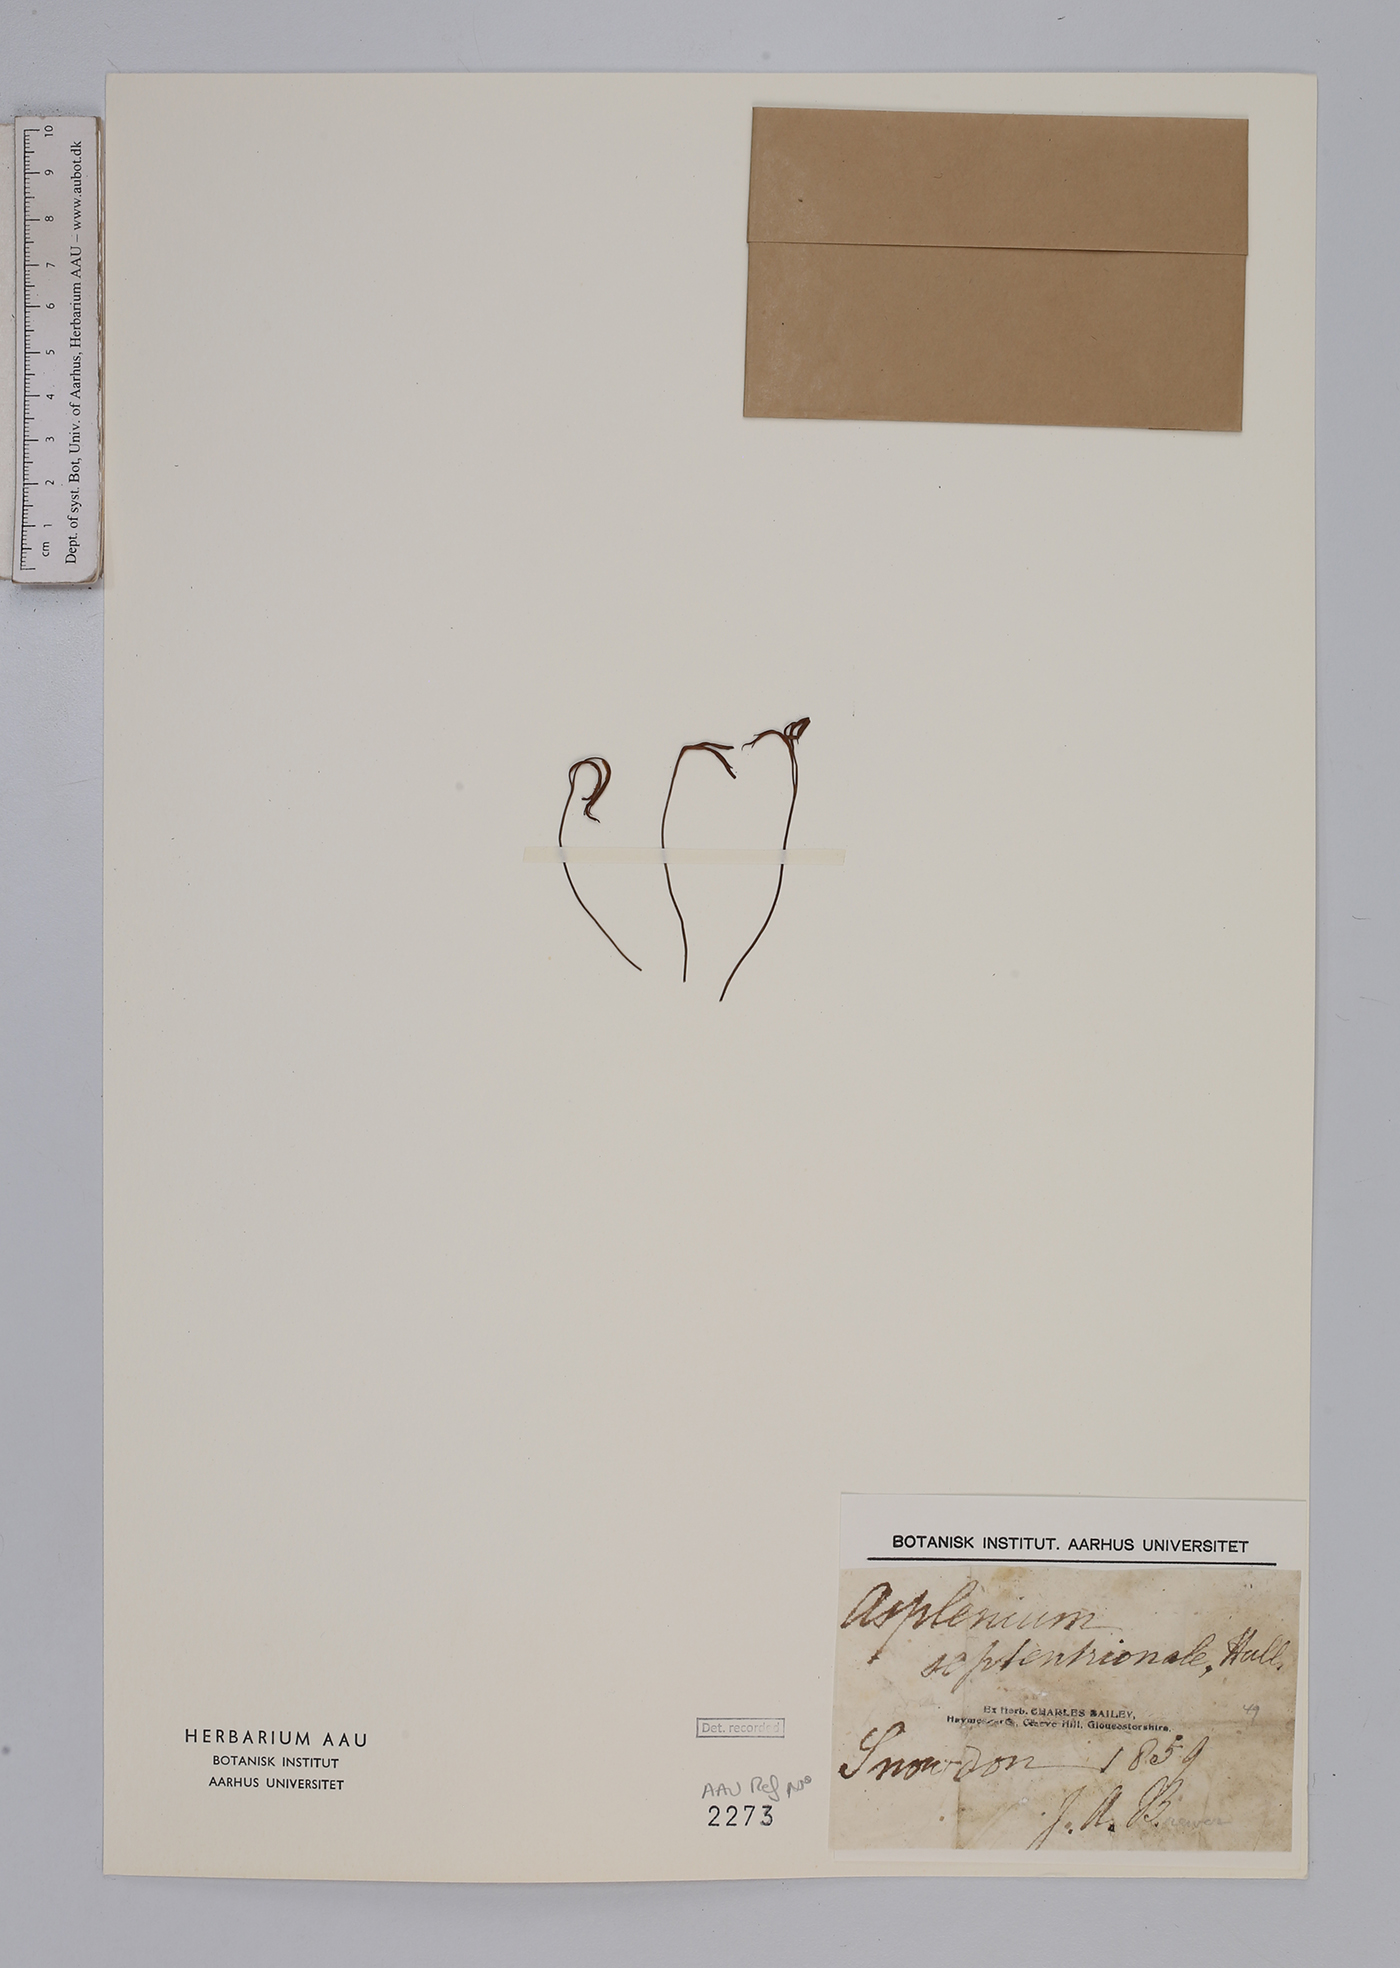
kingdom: Plantae
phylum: Tracheophyta
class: Polypodiopsida
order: Polypodiales
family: Aspleniaceae
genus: Asplenium
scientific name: Asplenium septentrionale
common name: Forked spleenwort
